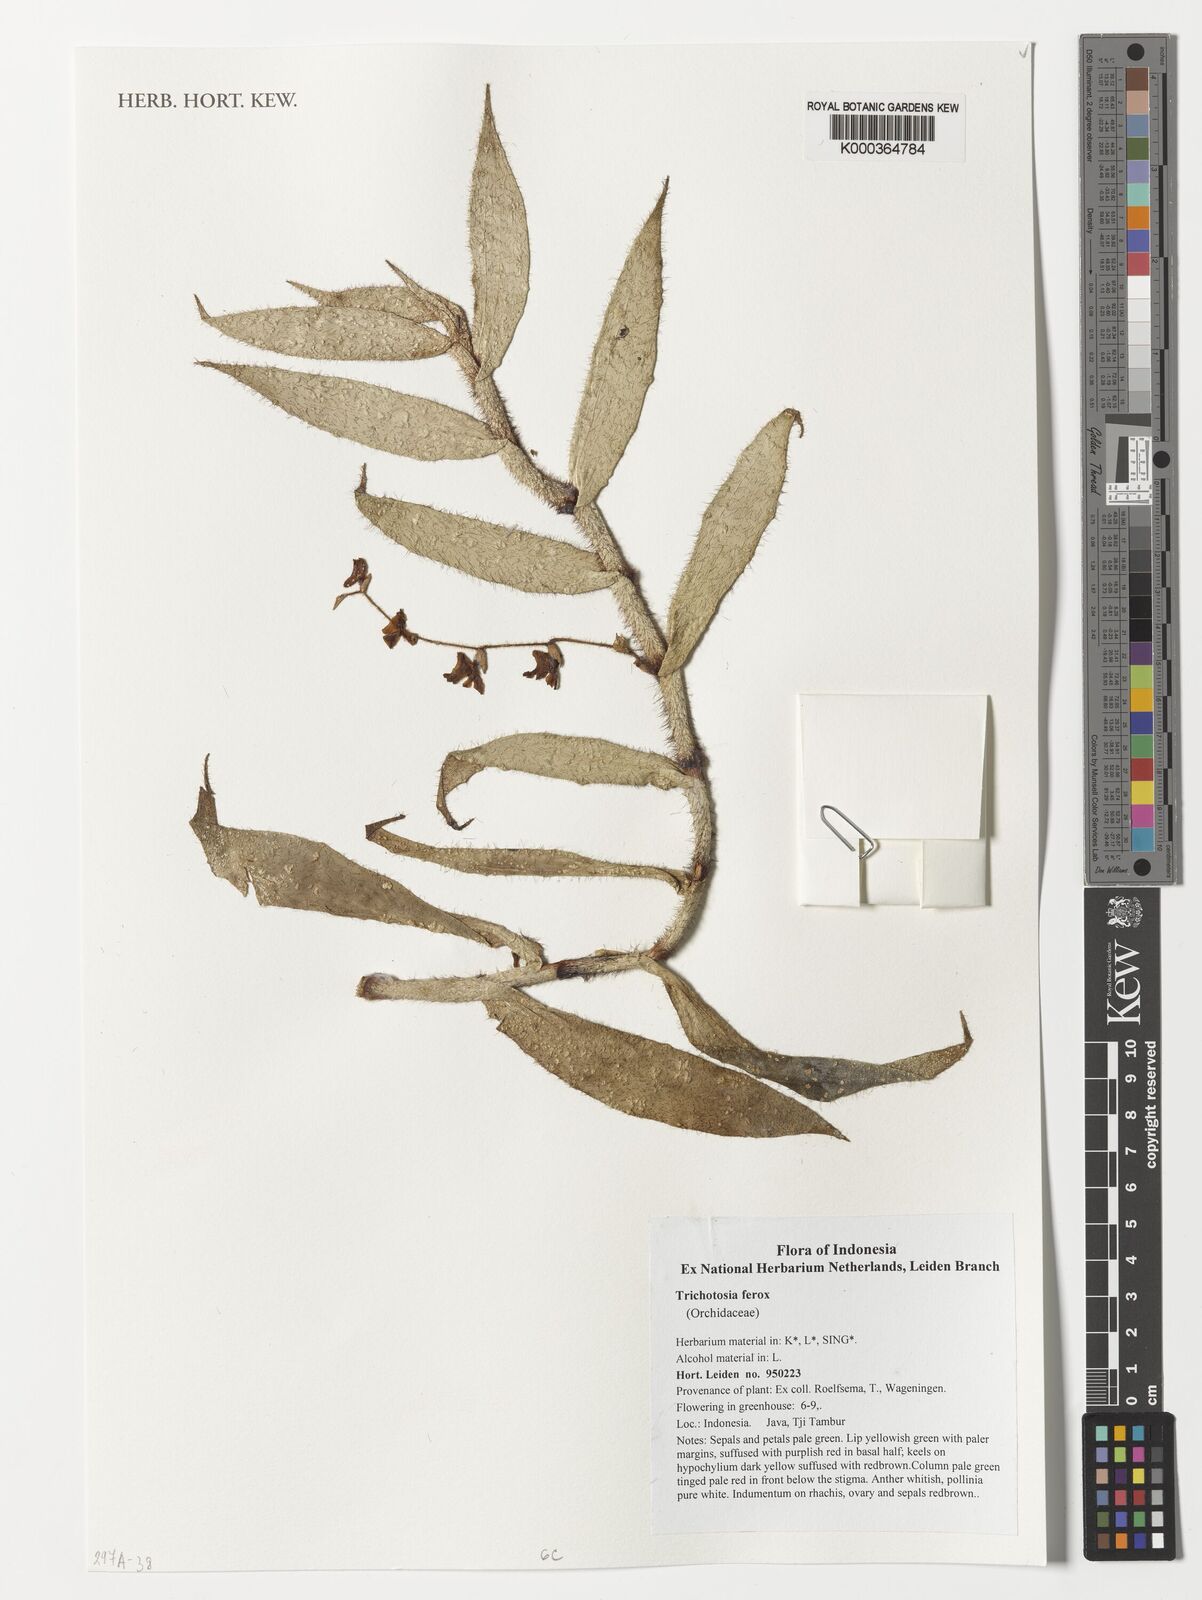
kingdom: Plantae
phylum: Tracheophyta
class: Liliopsida
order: Asparagales
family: Orchidaceae
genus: Trichotosia
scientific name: Trichotosia ferox
